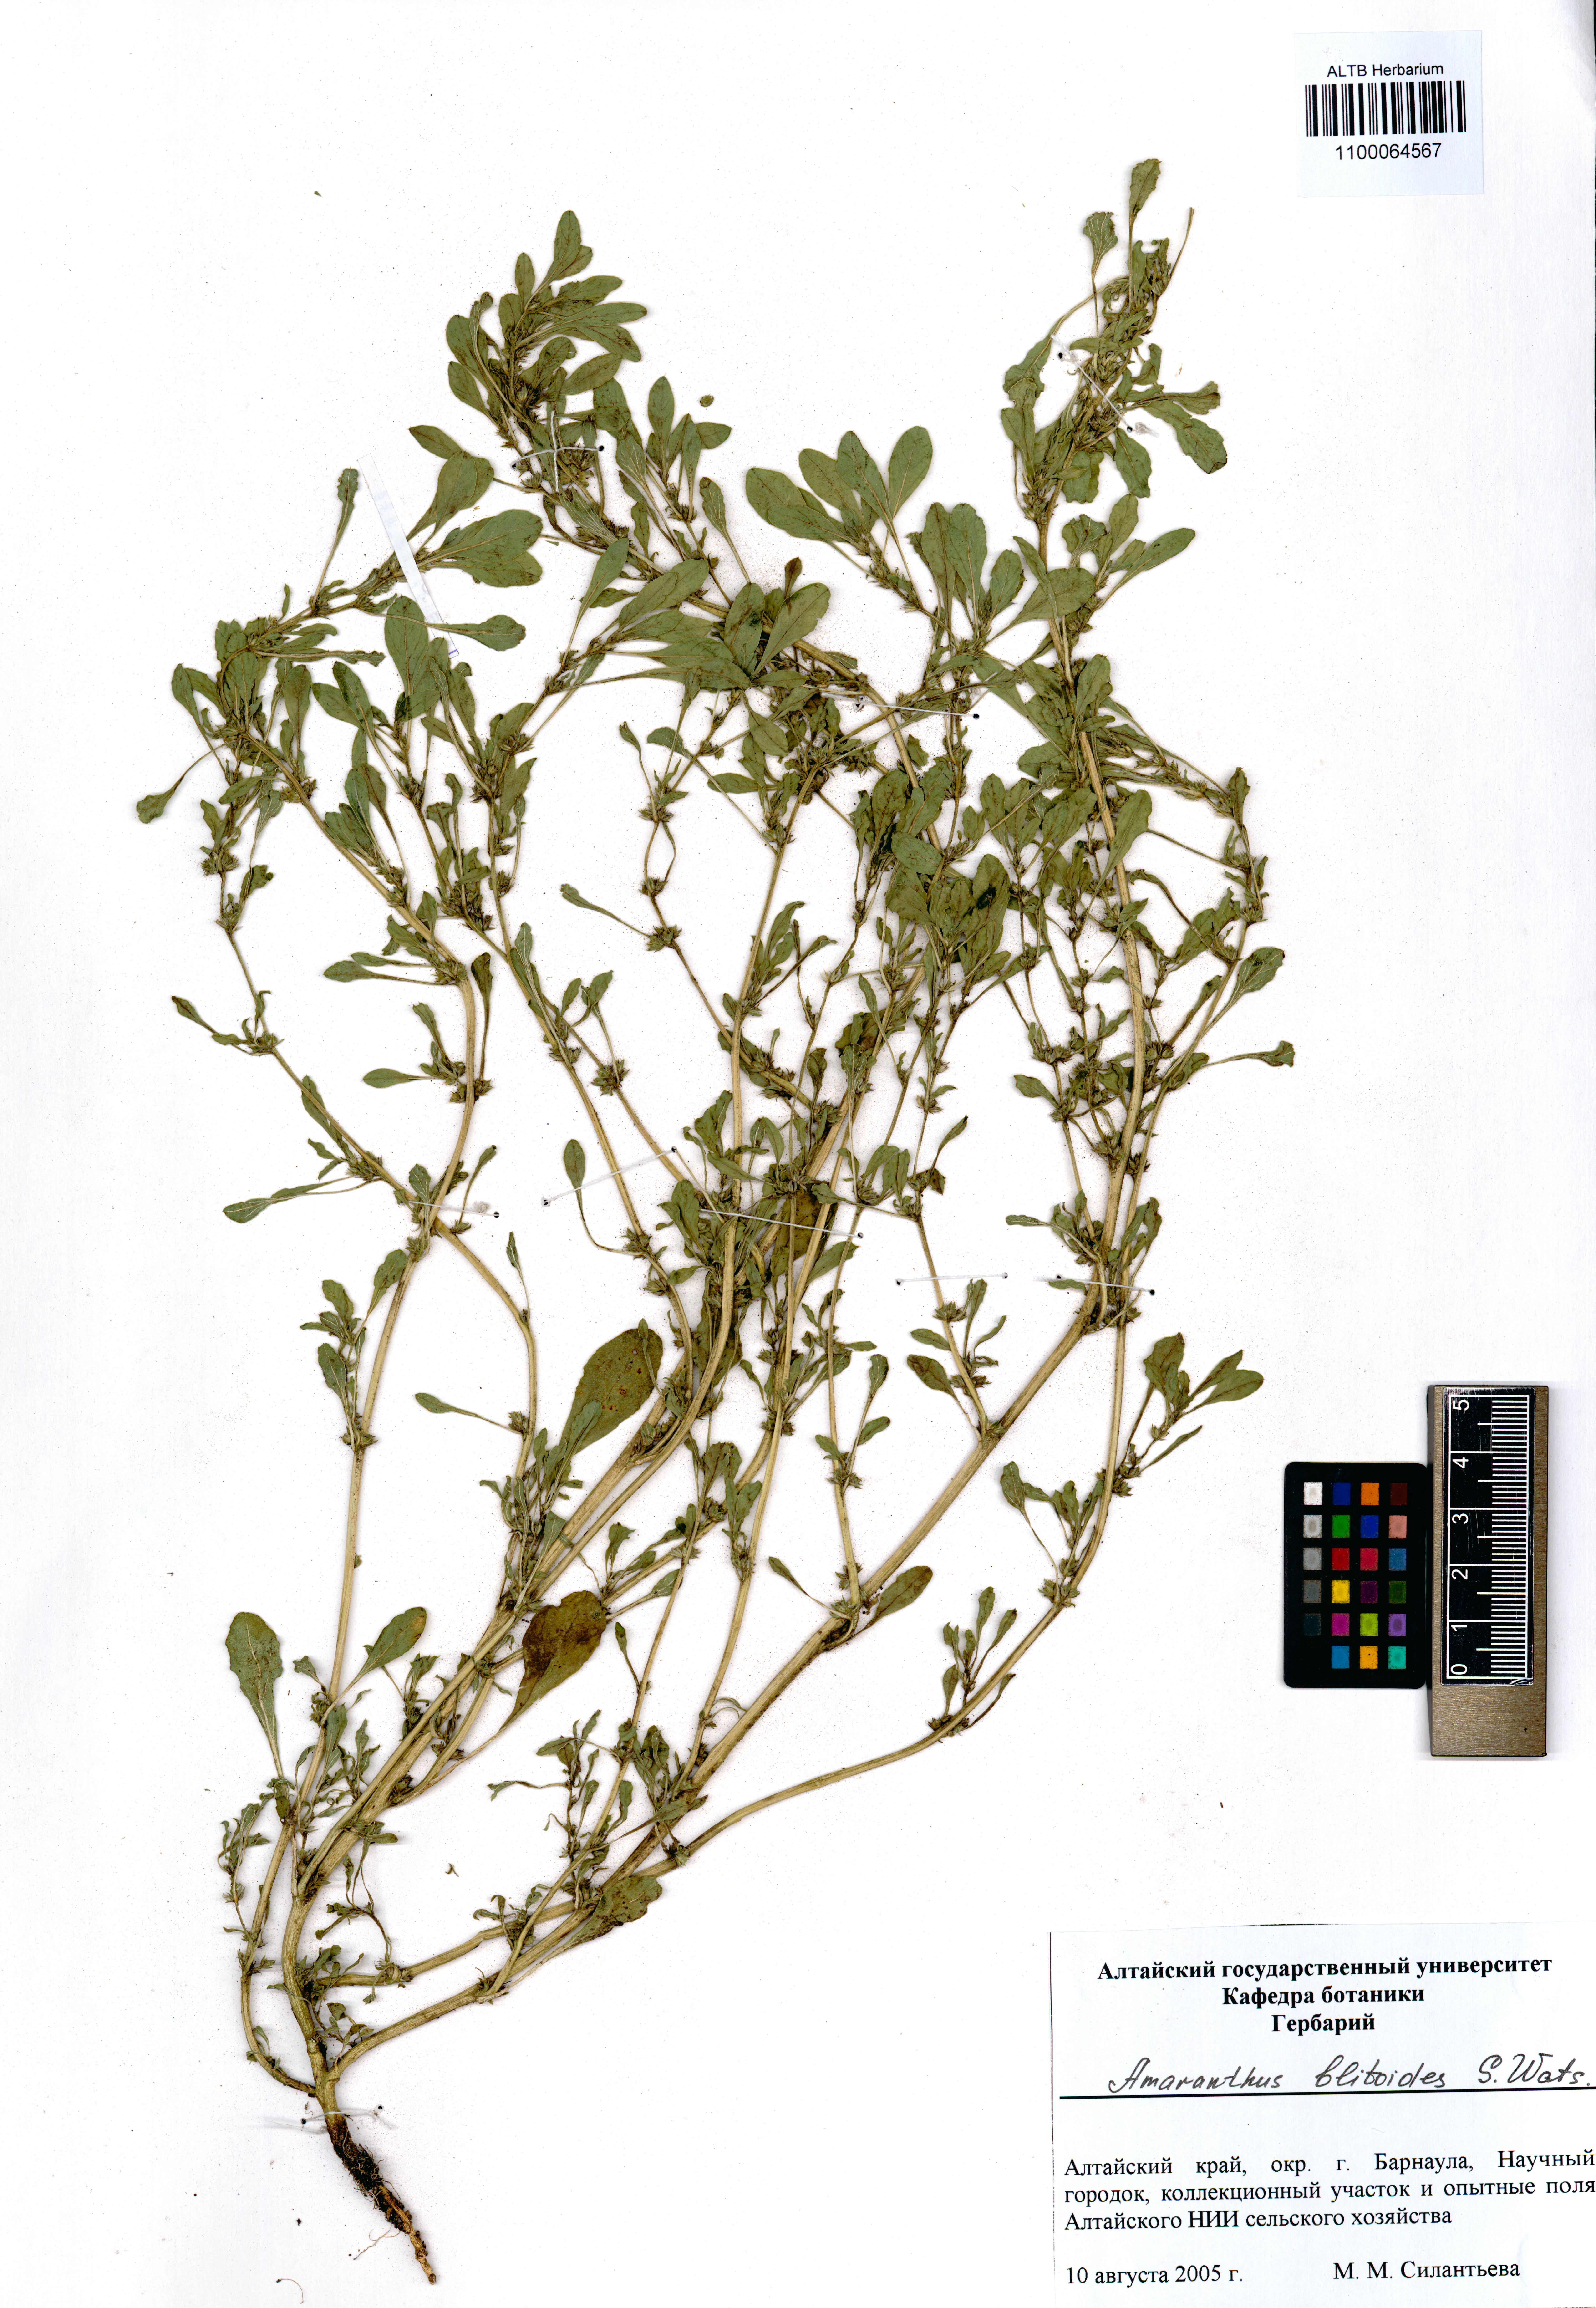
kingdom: Plantae
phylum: Tracheophyta
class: Magnoliopsida
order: Caryophyllales
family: Amaranthaceae
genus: Amaranthus
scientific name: Amaranthus blitoides
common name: Prostrate pigweed
